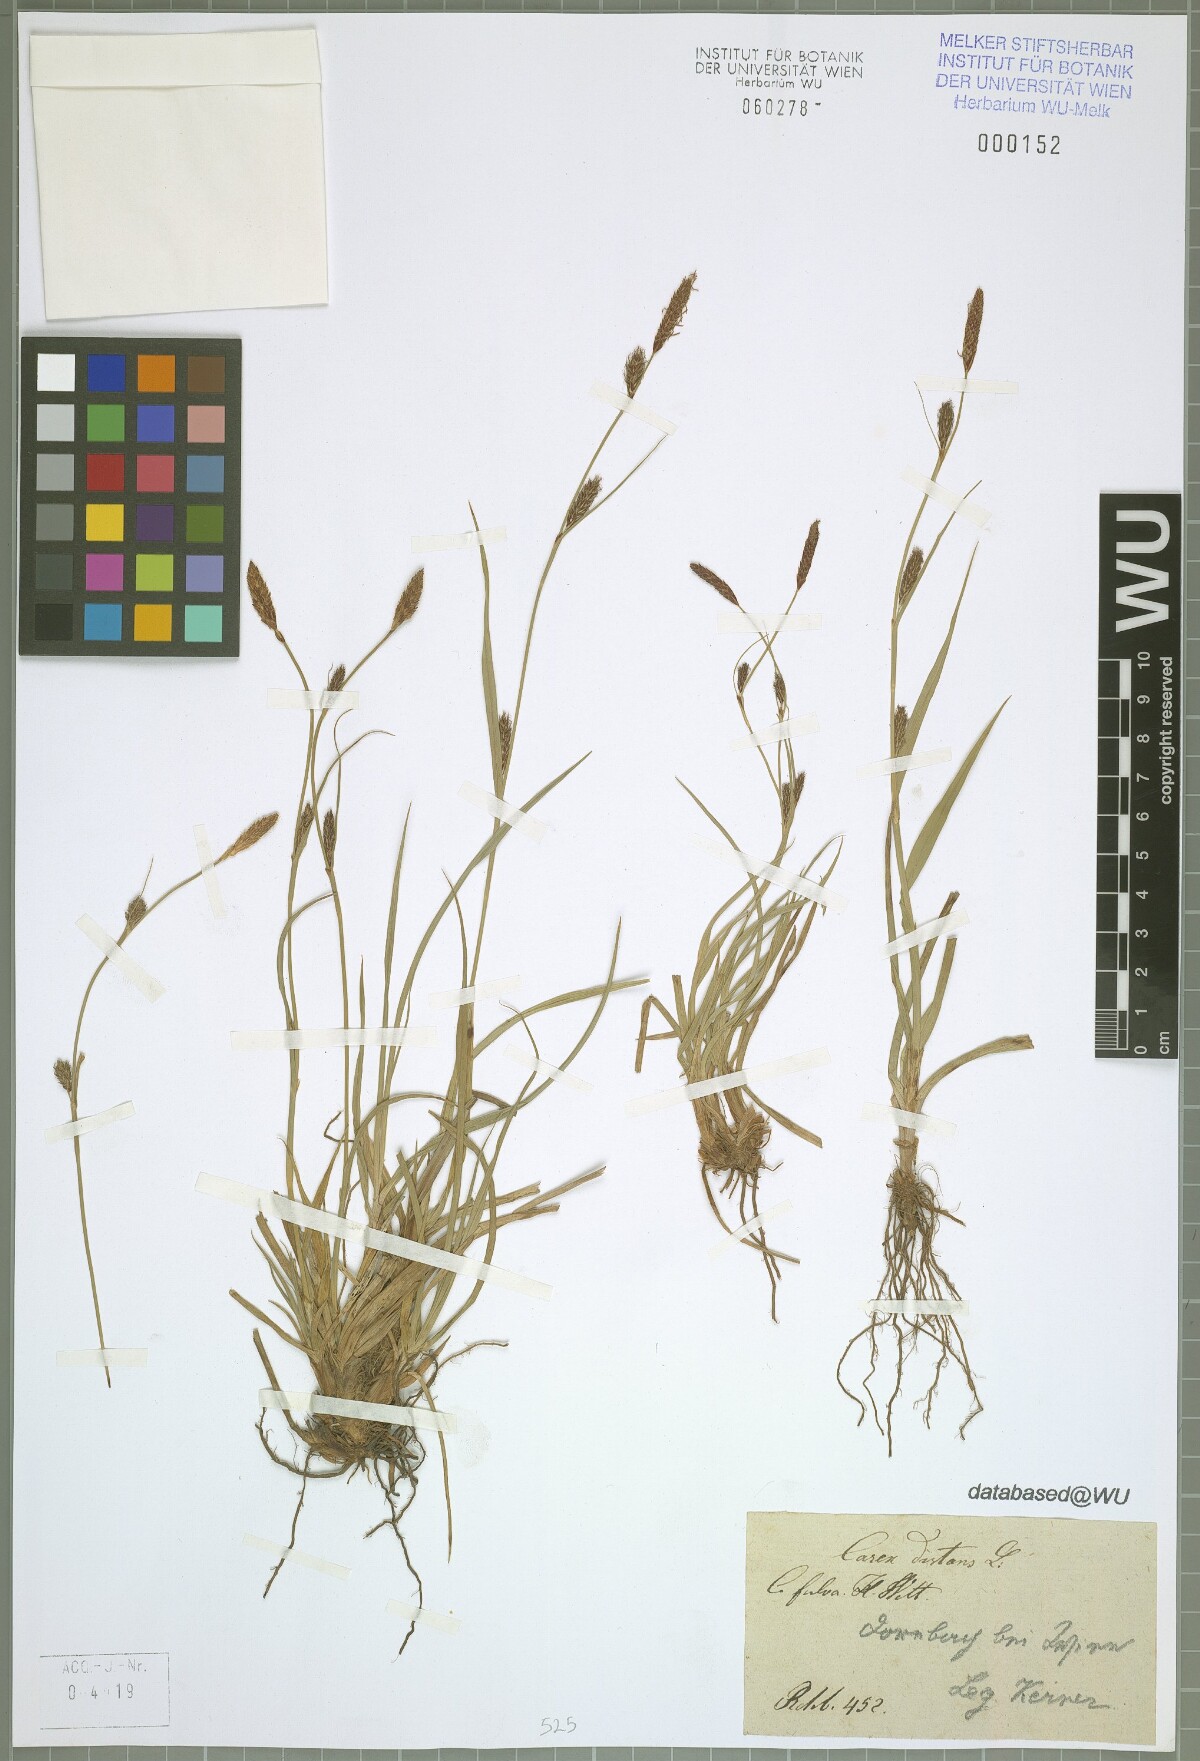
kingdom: Plantae
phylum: Tracheophyta
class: Liliopsida
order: Poales
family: Cyperaceae
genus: Carex
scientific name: Carex distans
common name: Distant sedge
